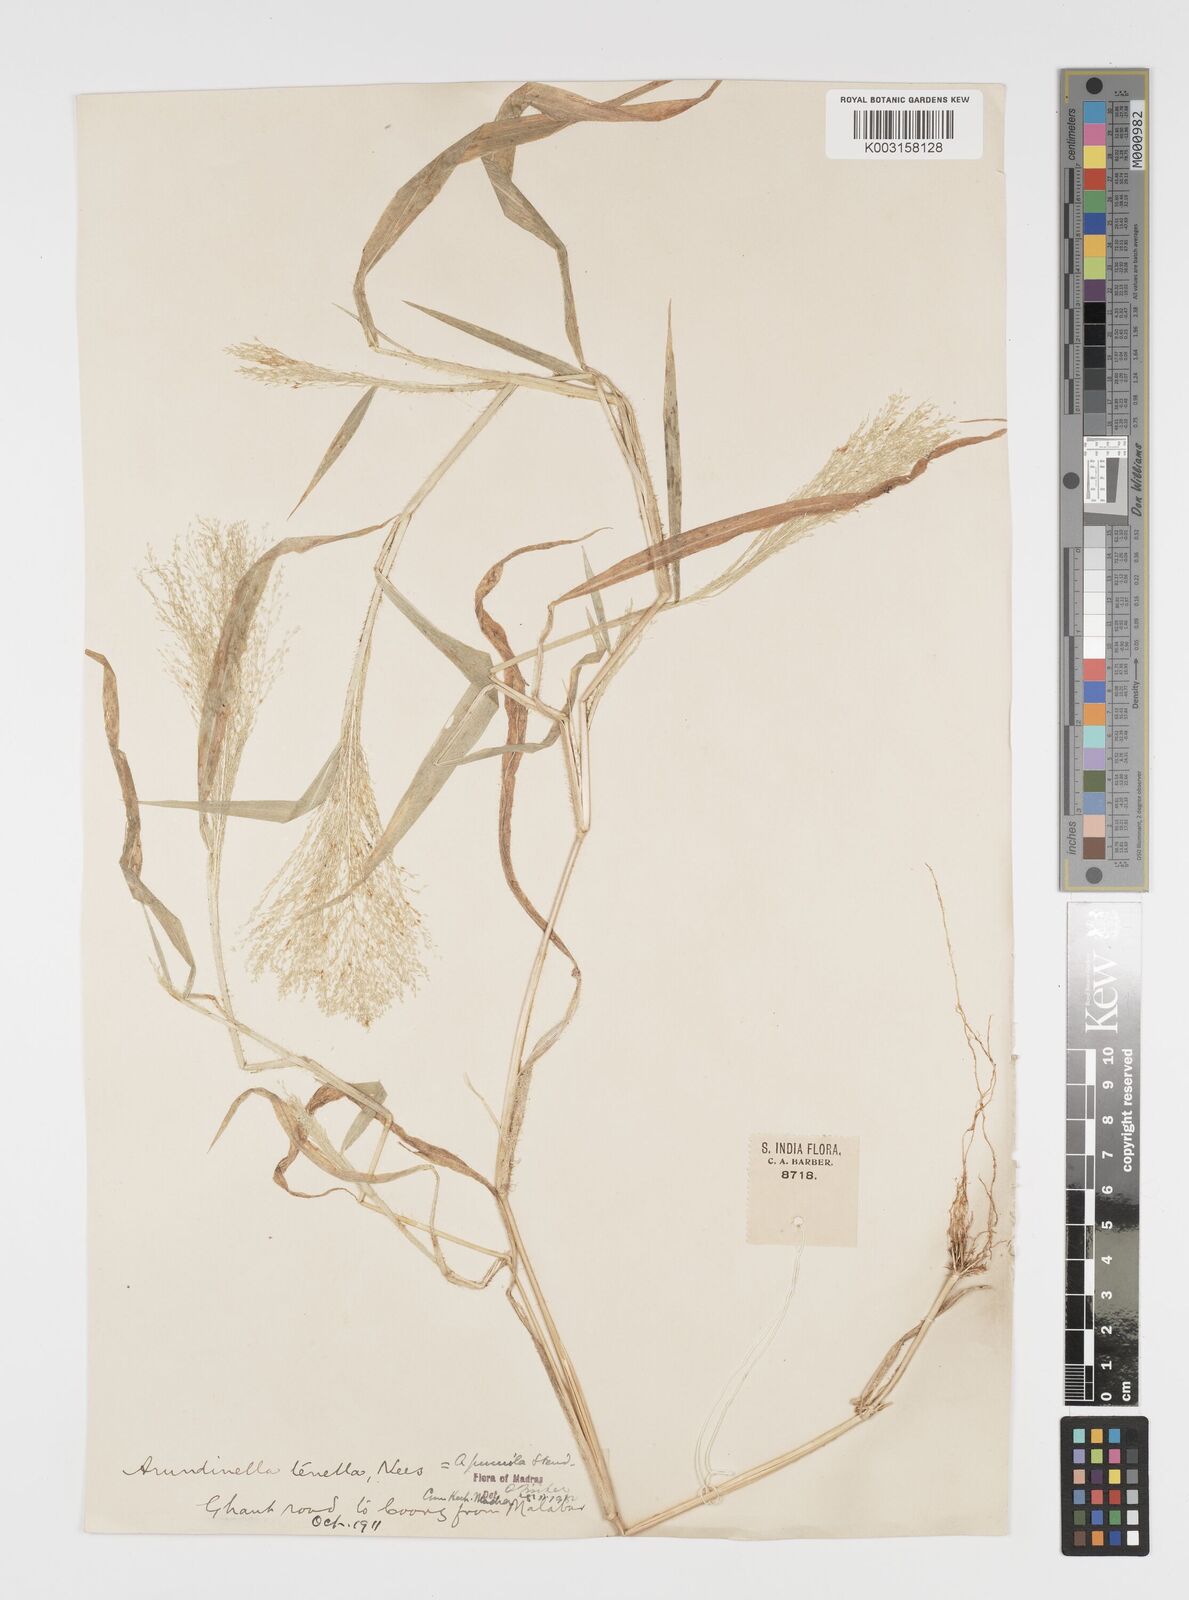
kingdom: Plantae
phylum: Tracheophyta
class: Liliopsida
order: Poales
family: Poaceae
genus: Arundinella
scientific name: Arundinella pumila
